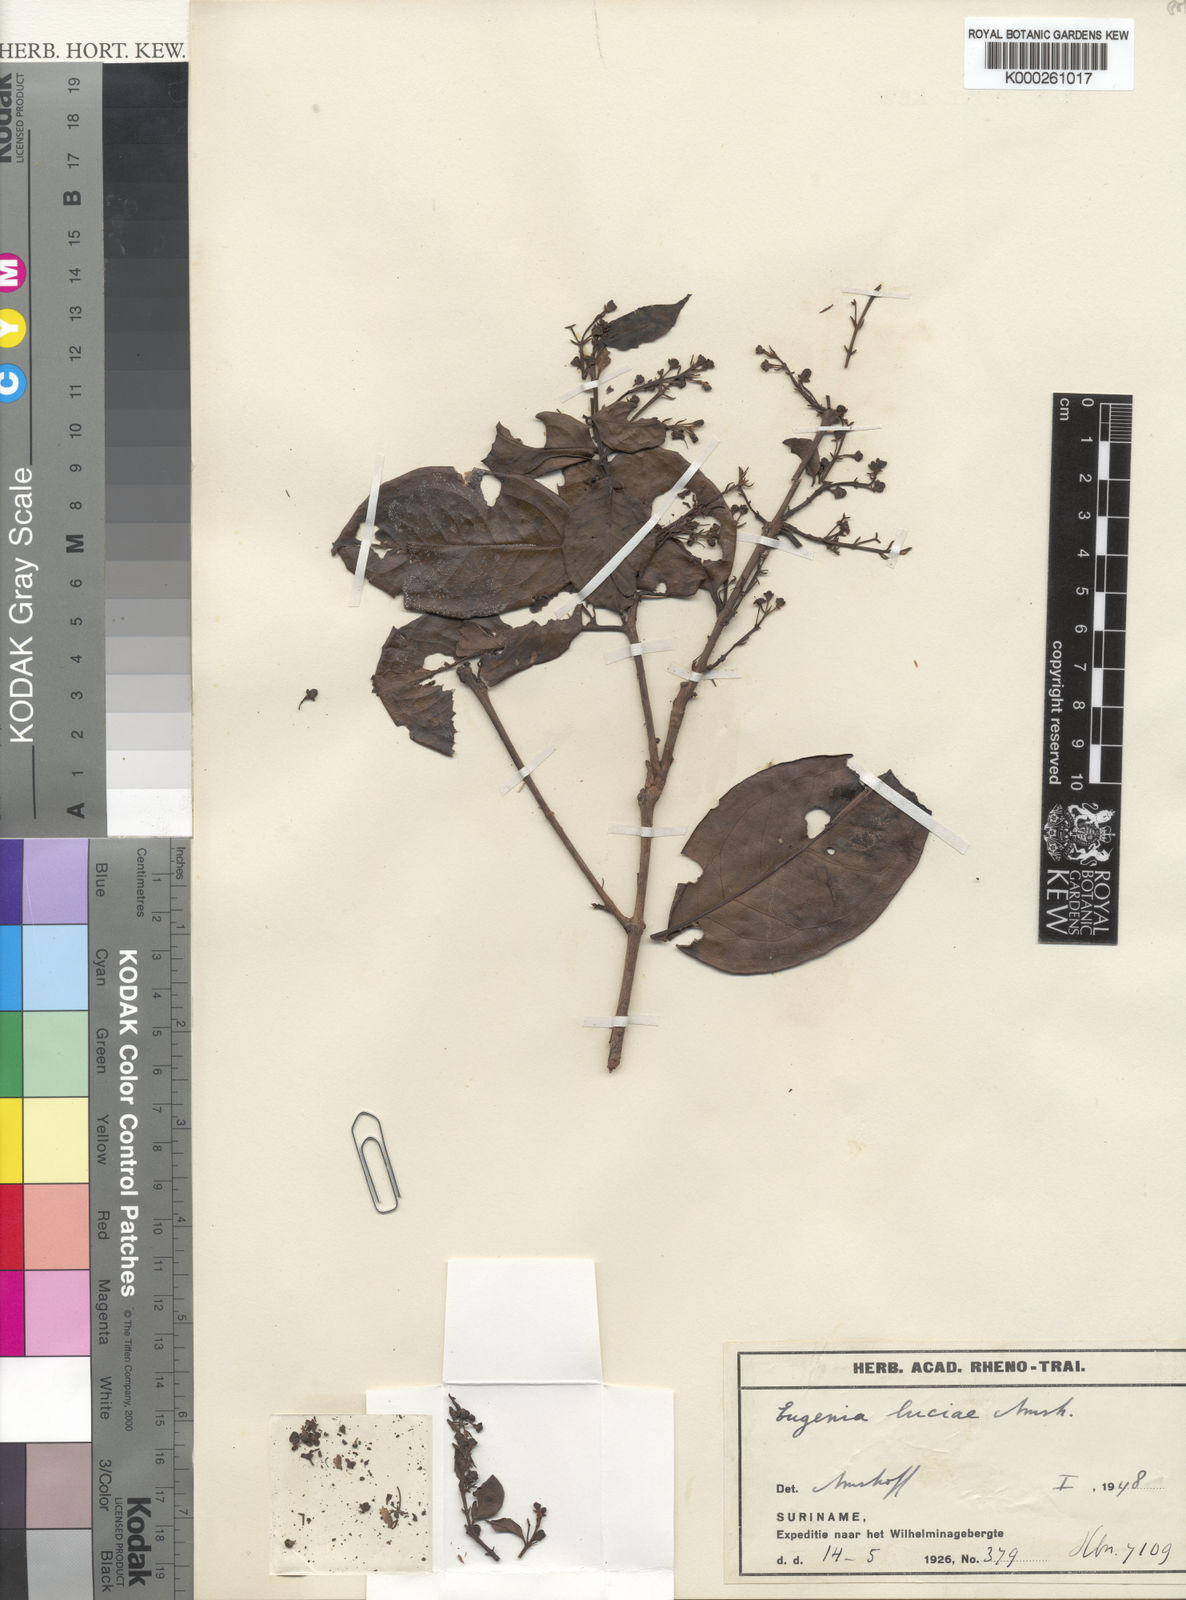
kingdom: Plantae
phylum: Tracheophyta
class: Magnoliopsida
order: Myrtales
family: Myrtaceae
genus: Eugenia
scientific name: Eugenia luciae
